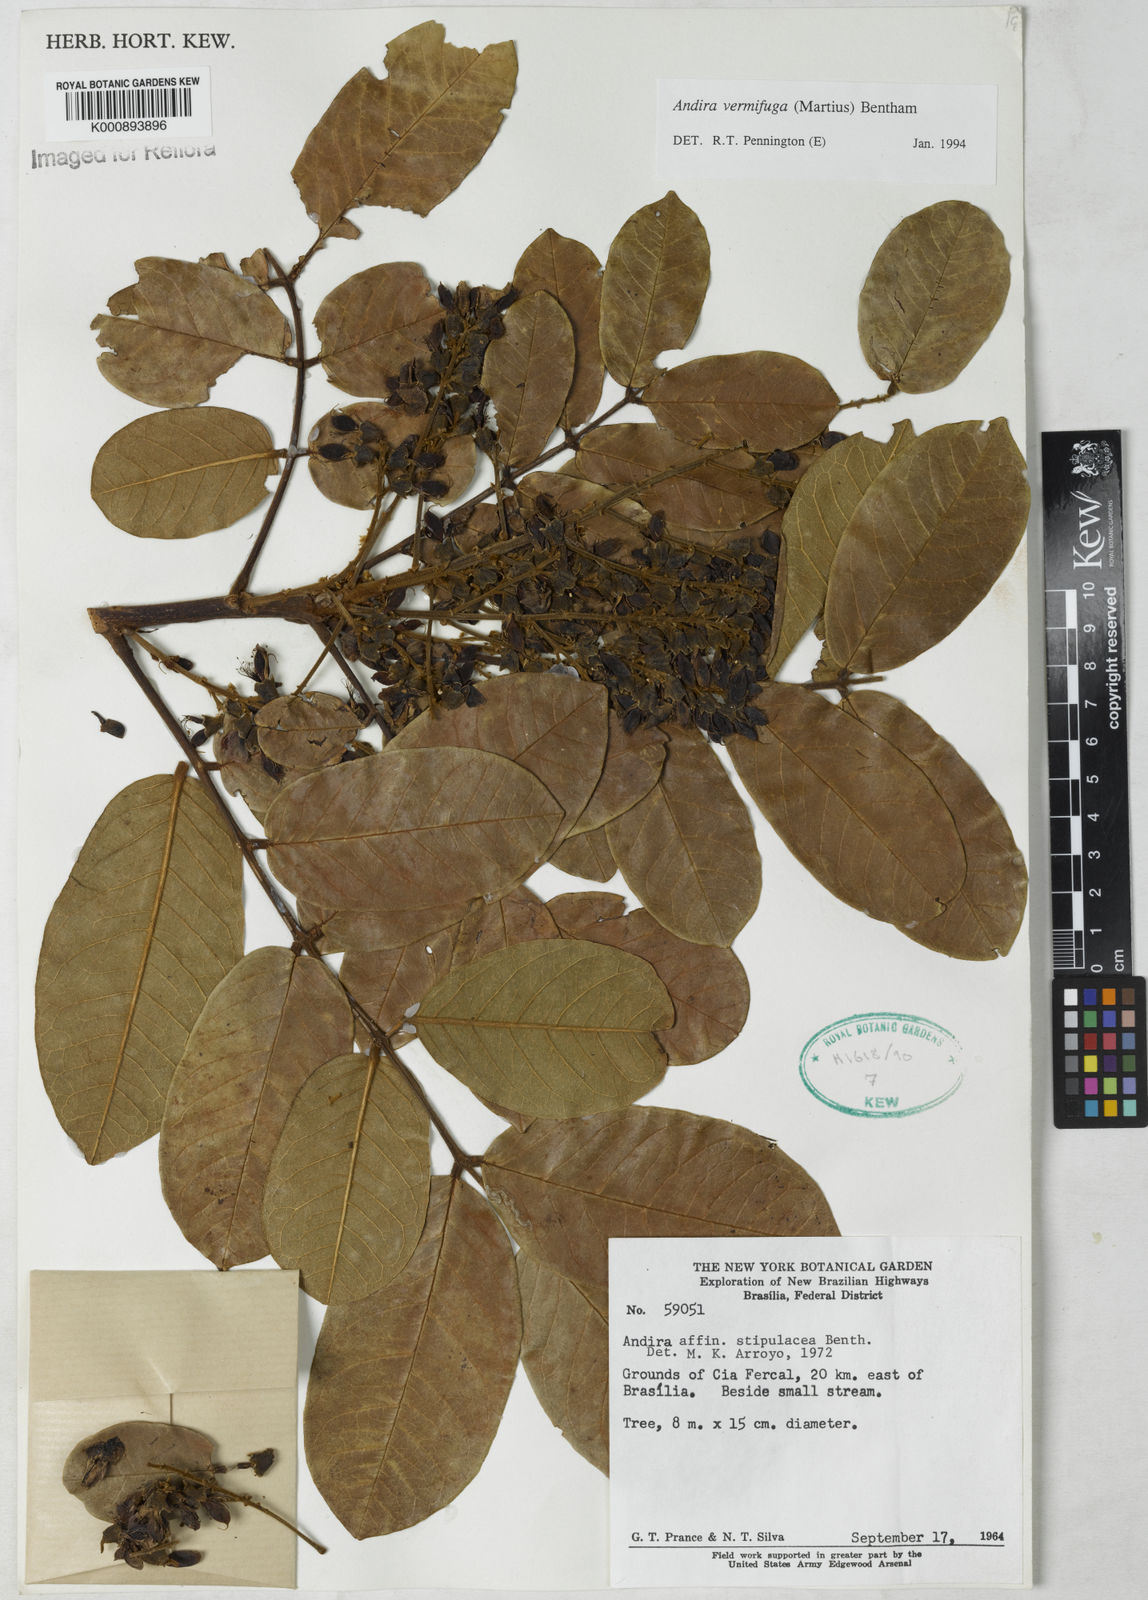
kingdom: Plantae
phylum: Tracheophyta
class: Magnoliopsida
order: Fabales
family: Fabaceae
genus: Andira
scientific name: Andira vermifuga
